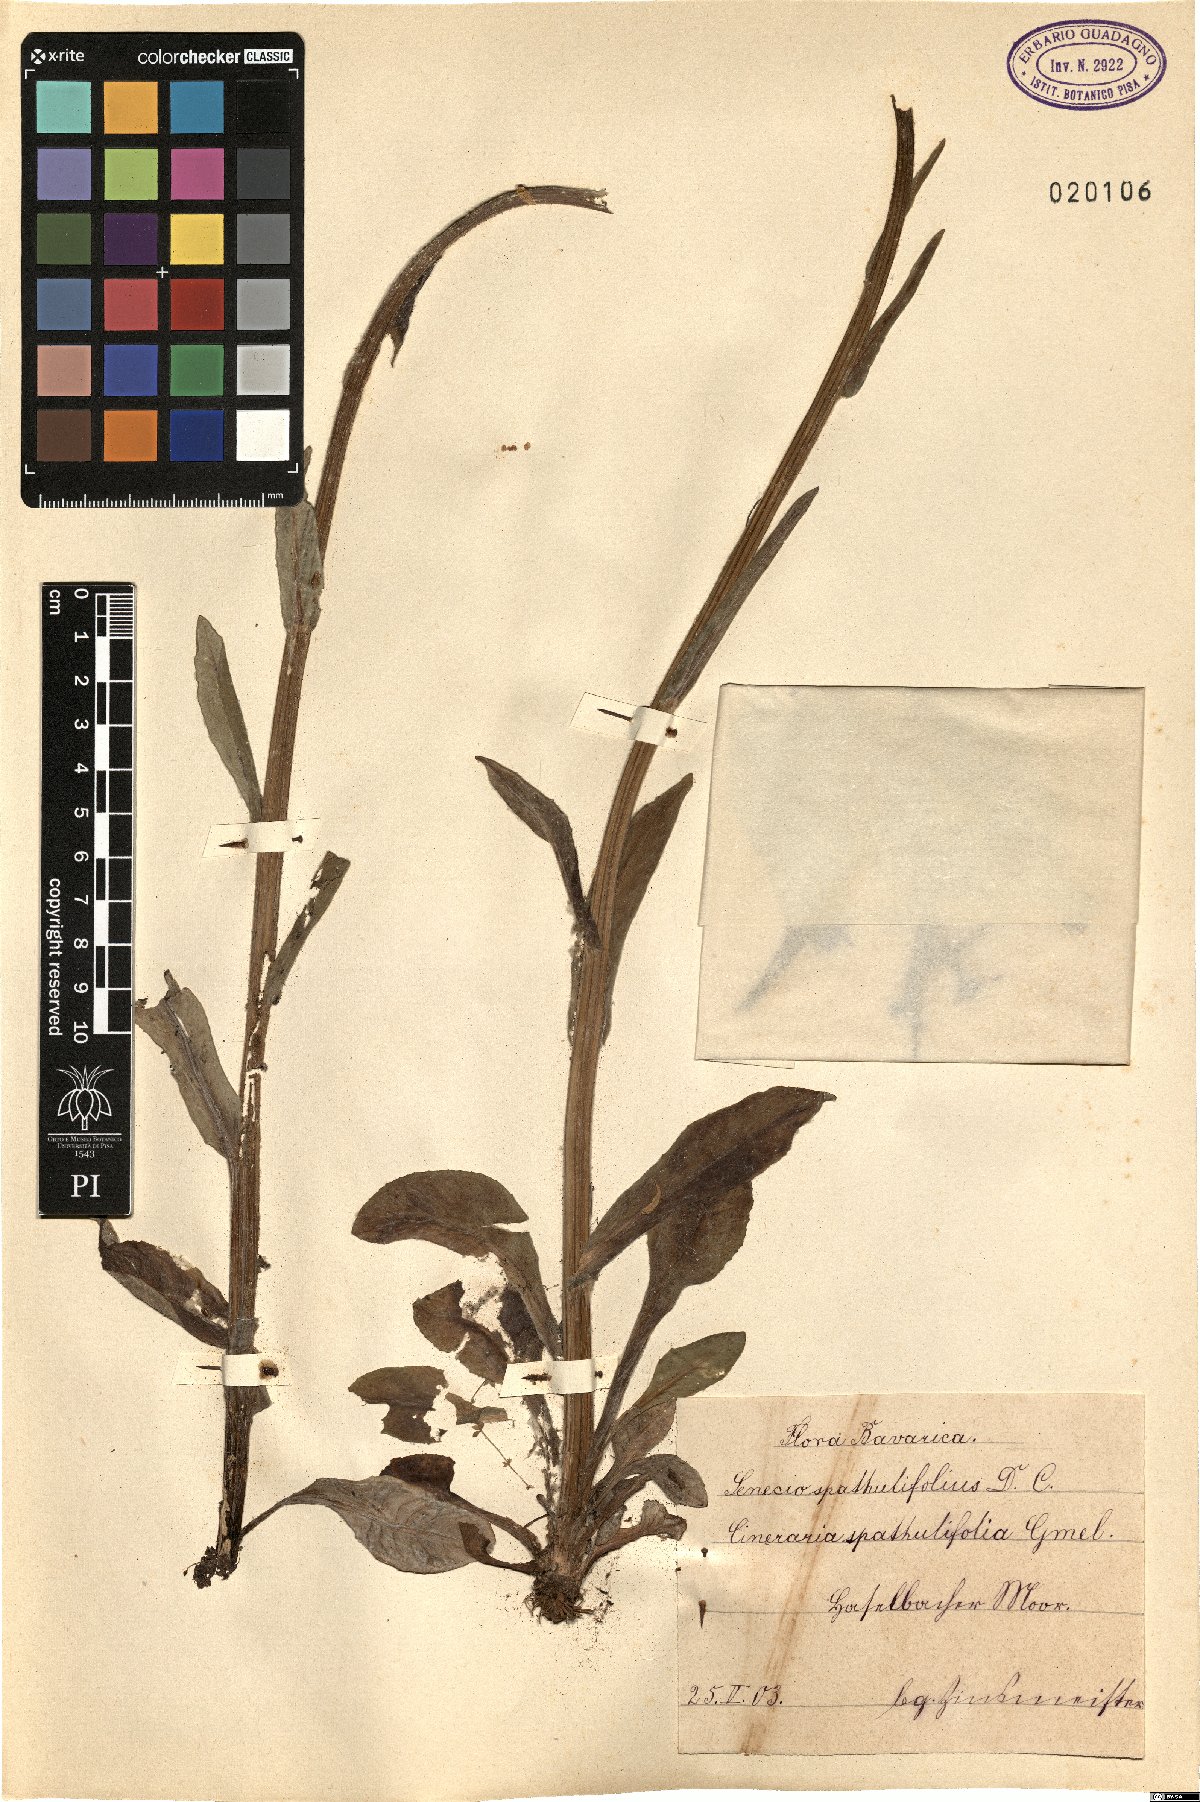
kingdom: Plantae
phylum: Tracheophyta
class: Magnoliopsida
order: Asterales
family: Asteraceae
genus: Tephroseris
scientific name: Tephroseris helenitis
